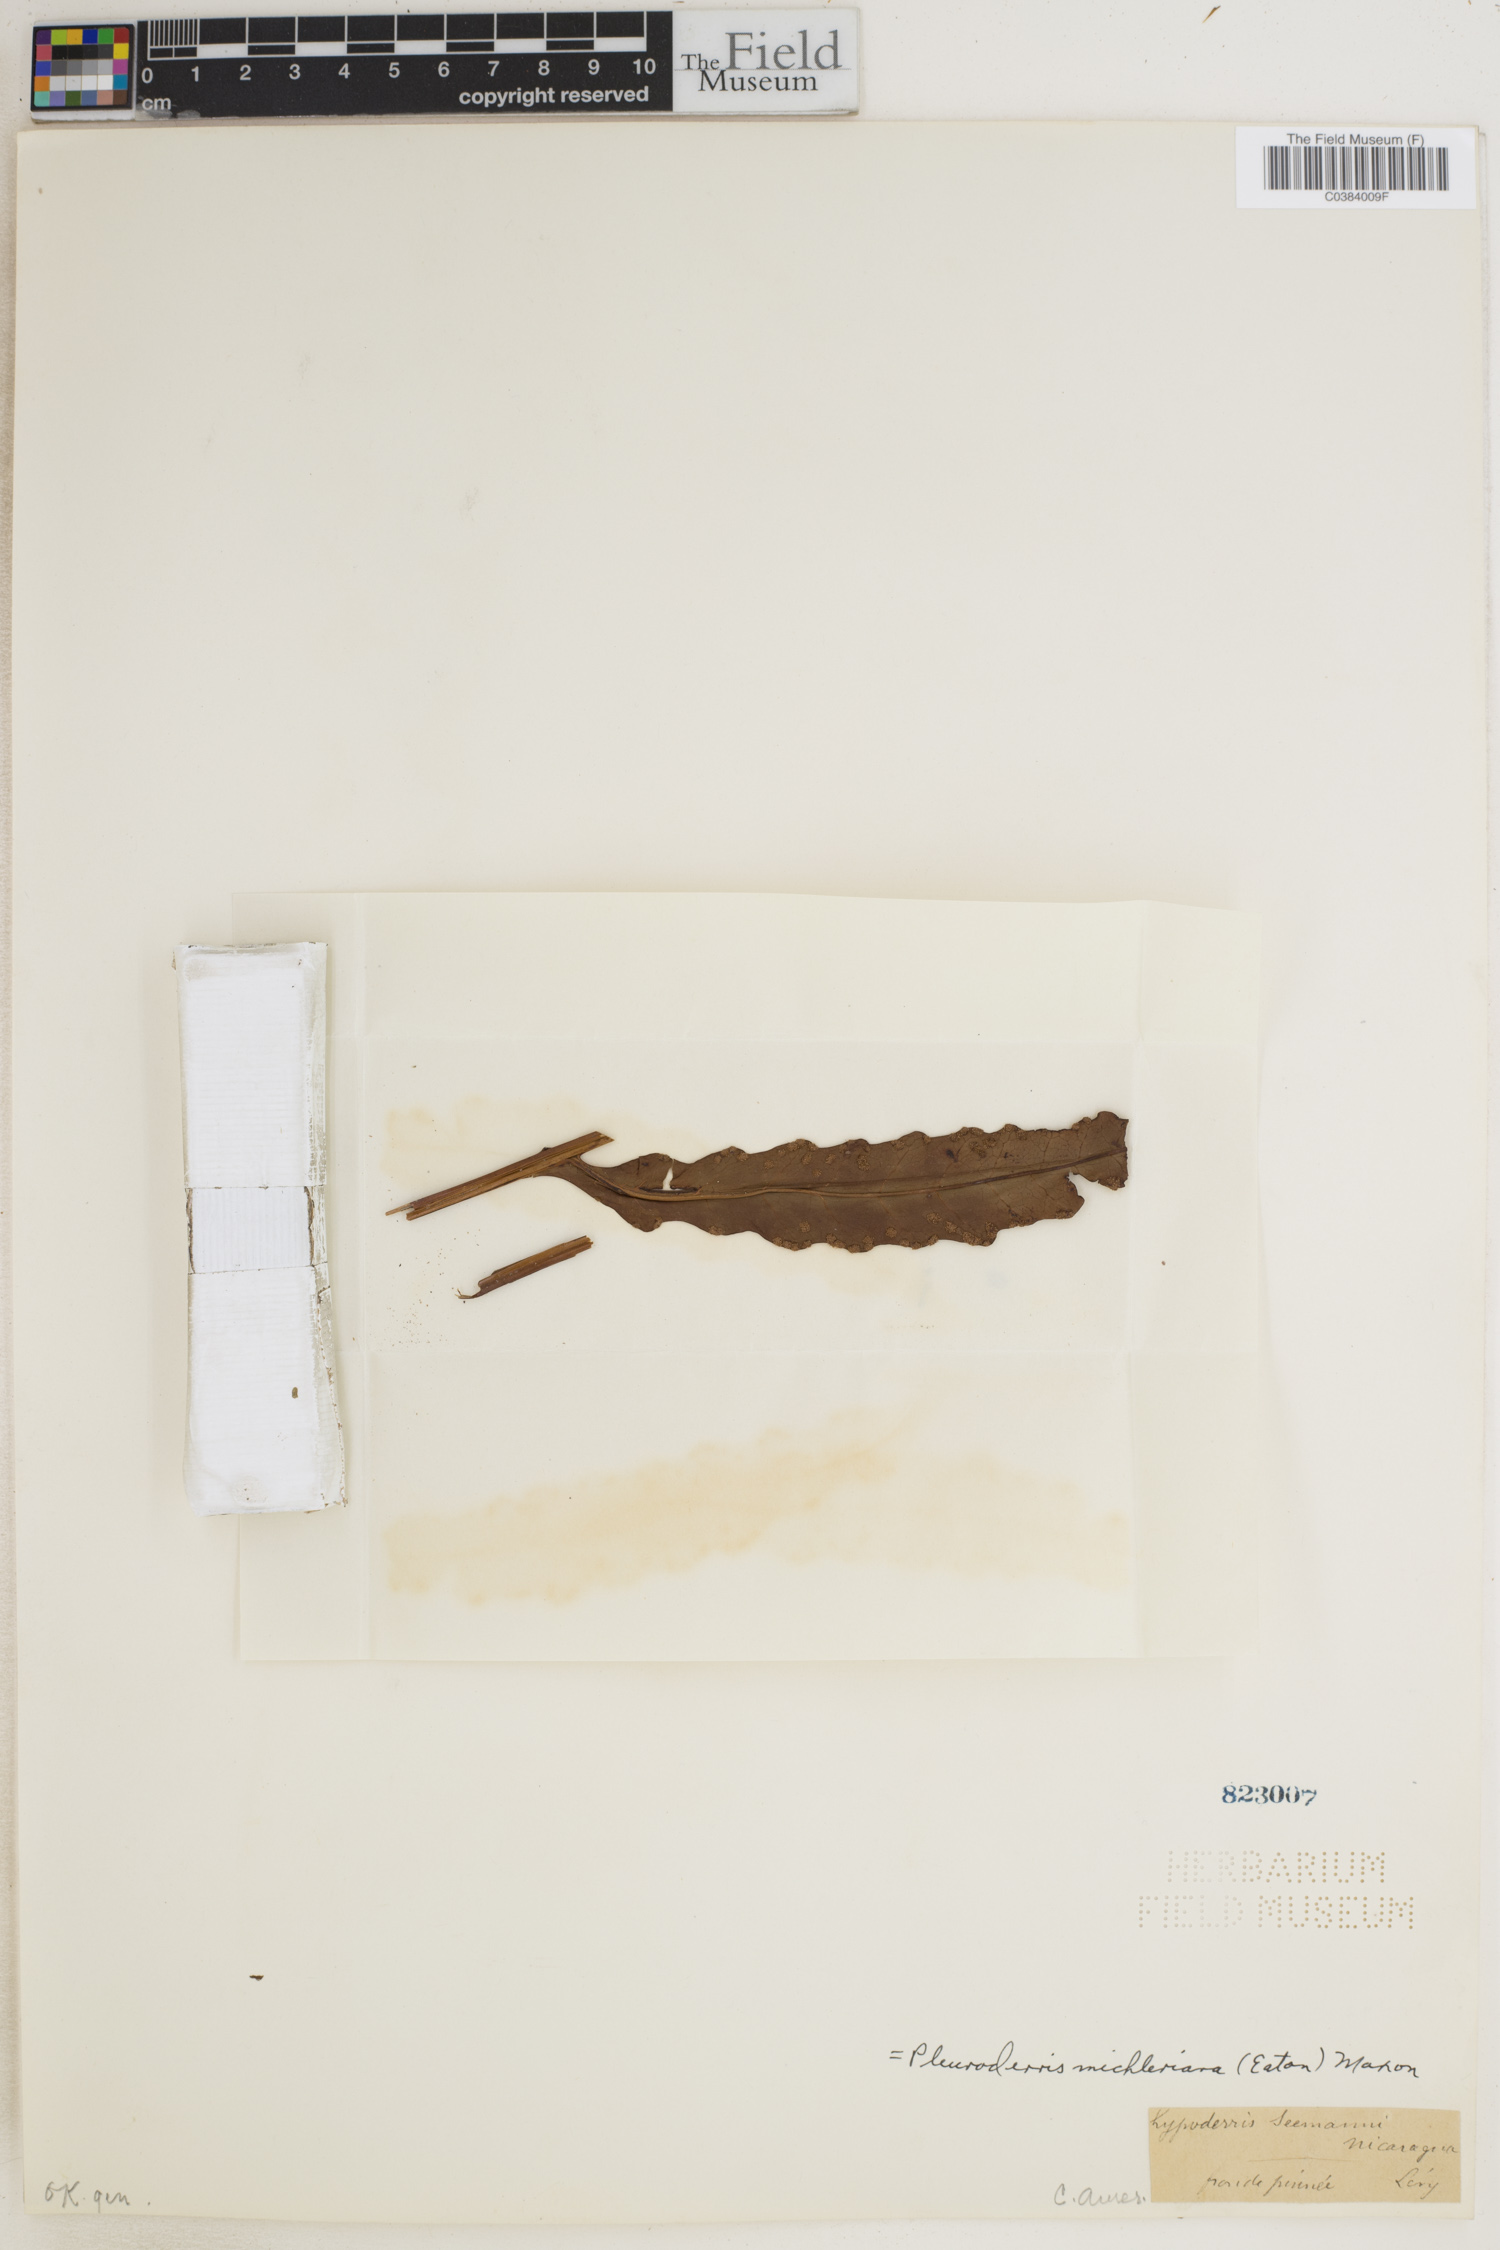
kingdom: Plantae
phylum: Tracheophyta
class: Polypodiopsida
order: Polypodiales
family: Tectariaceae
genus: Tectaria
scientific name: Tectaria michleriana
